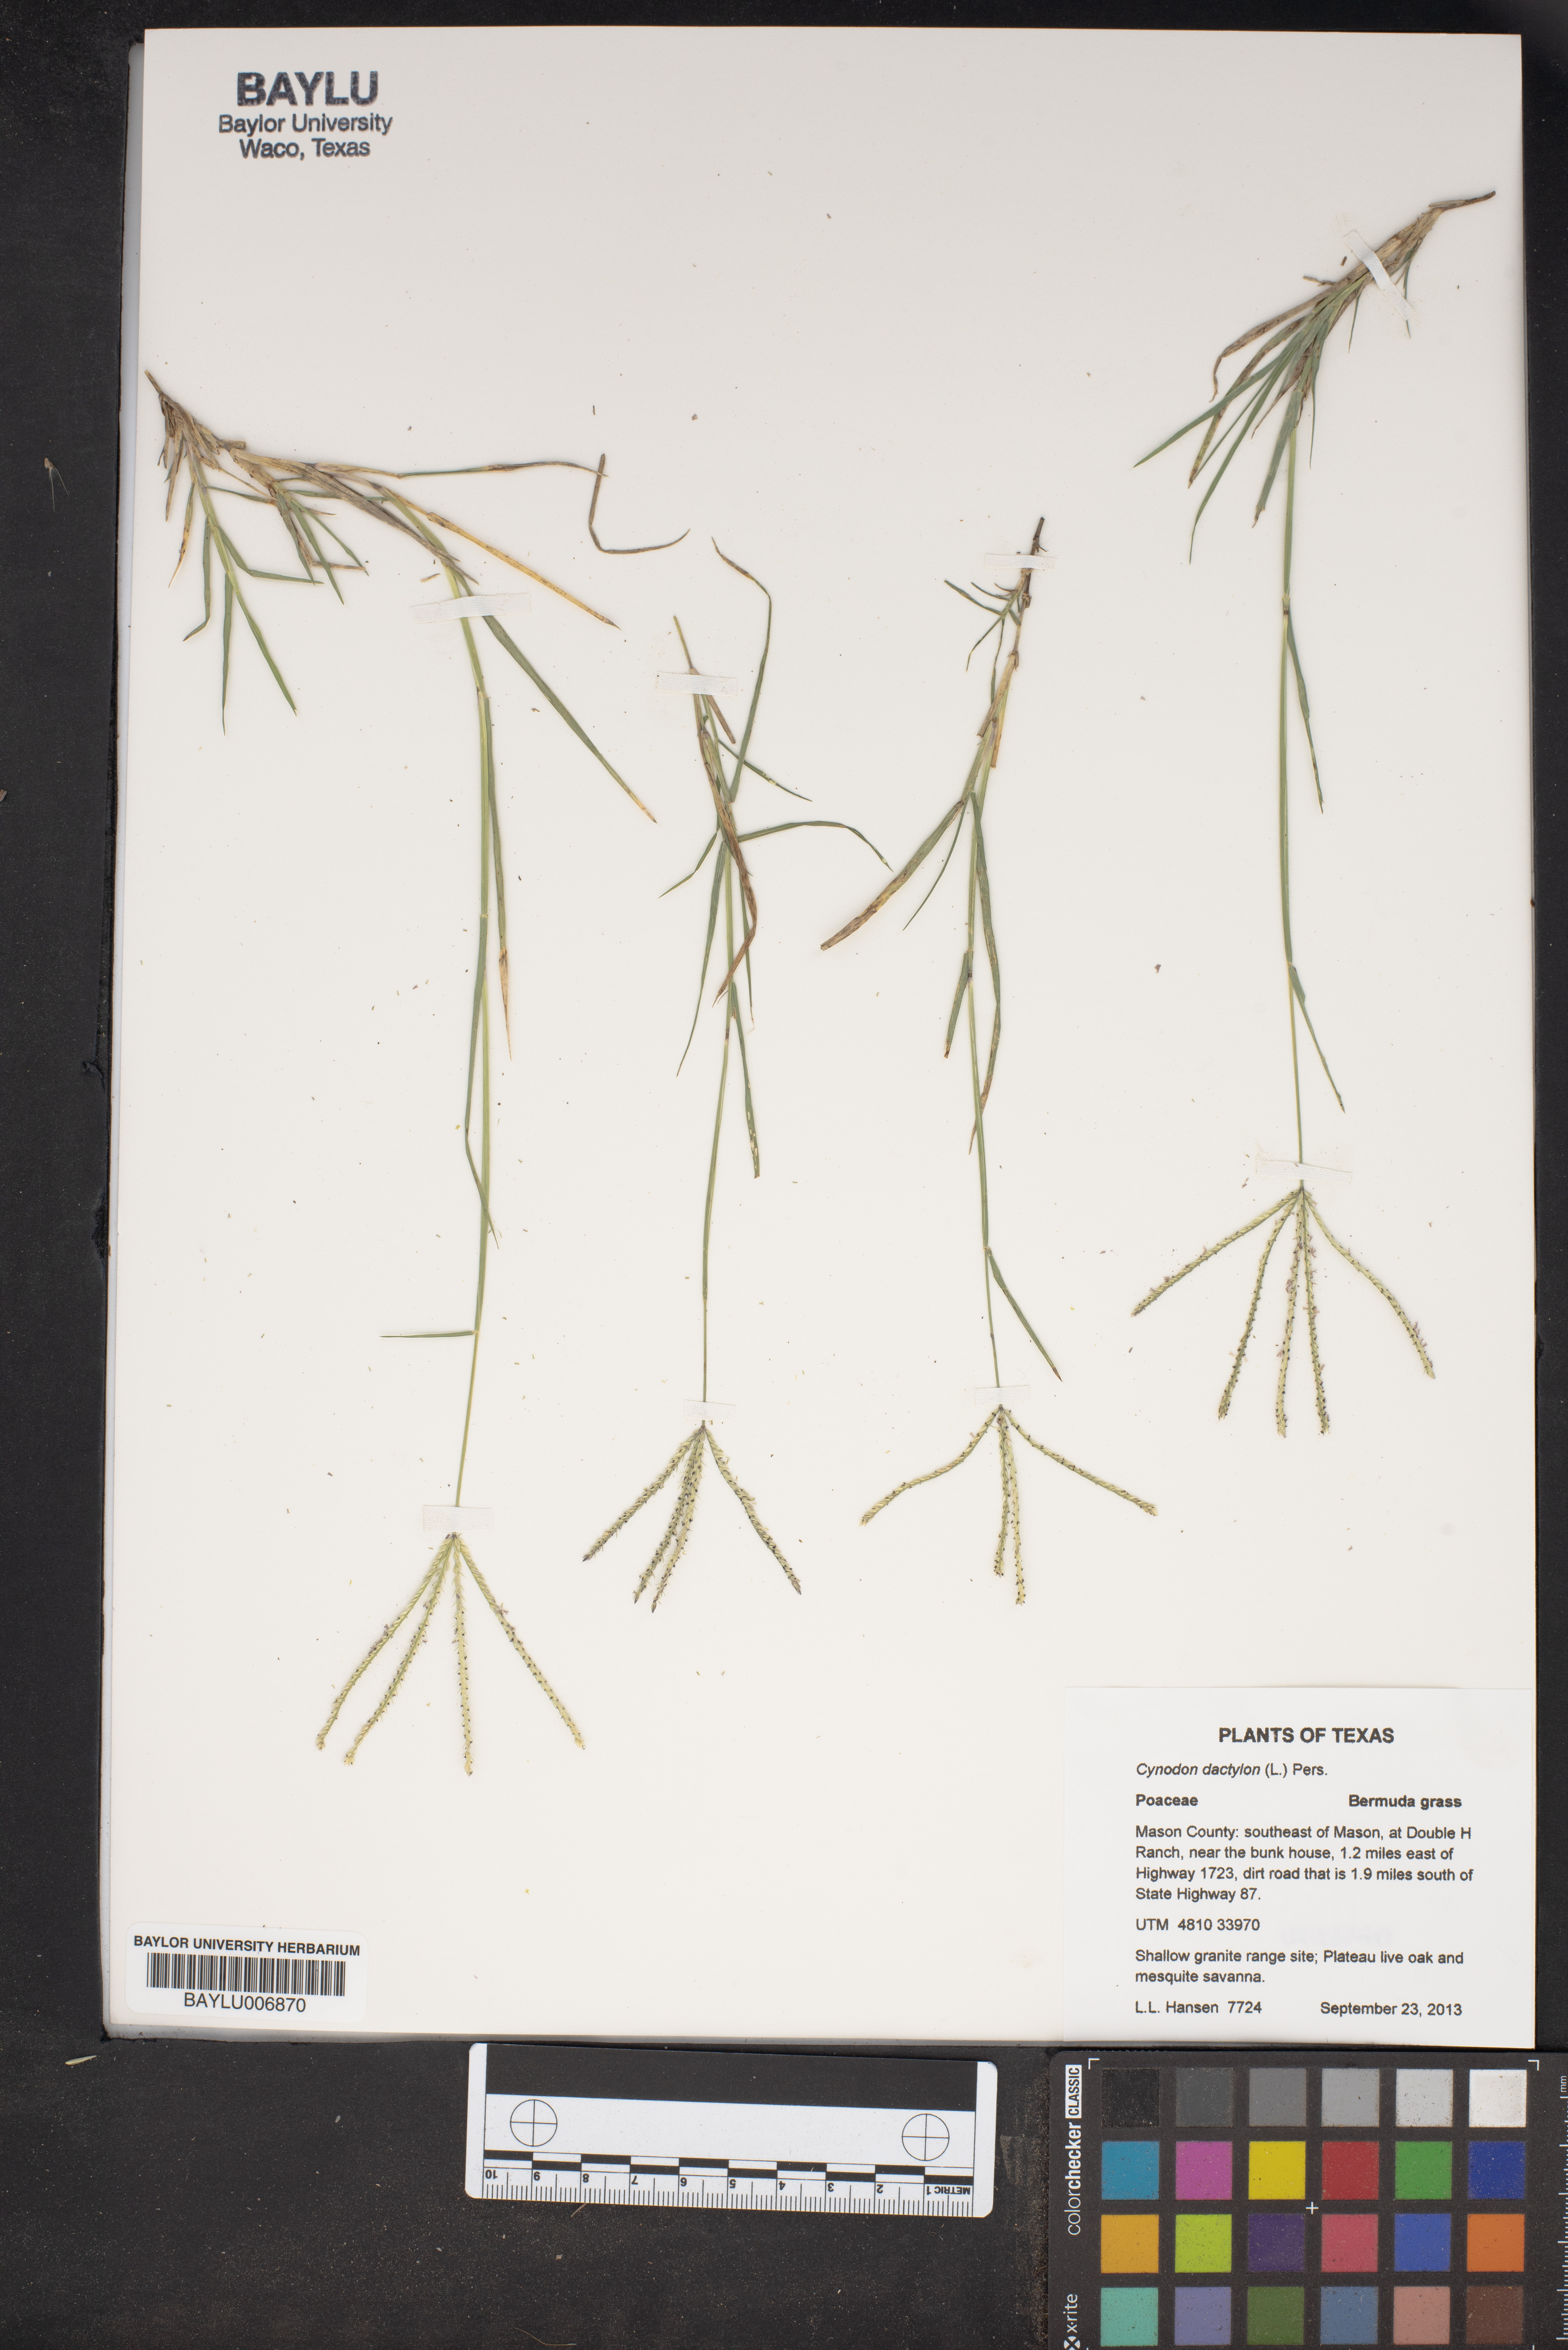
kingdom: Plantae
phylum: Tracheophyta
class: Liliopsida
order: Poales
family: Poaceae
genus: Cynodon
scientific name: Cynodon dactylon
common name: Bermuda grass
